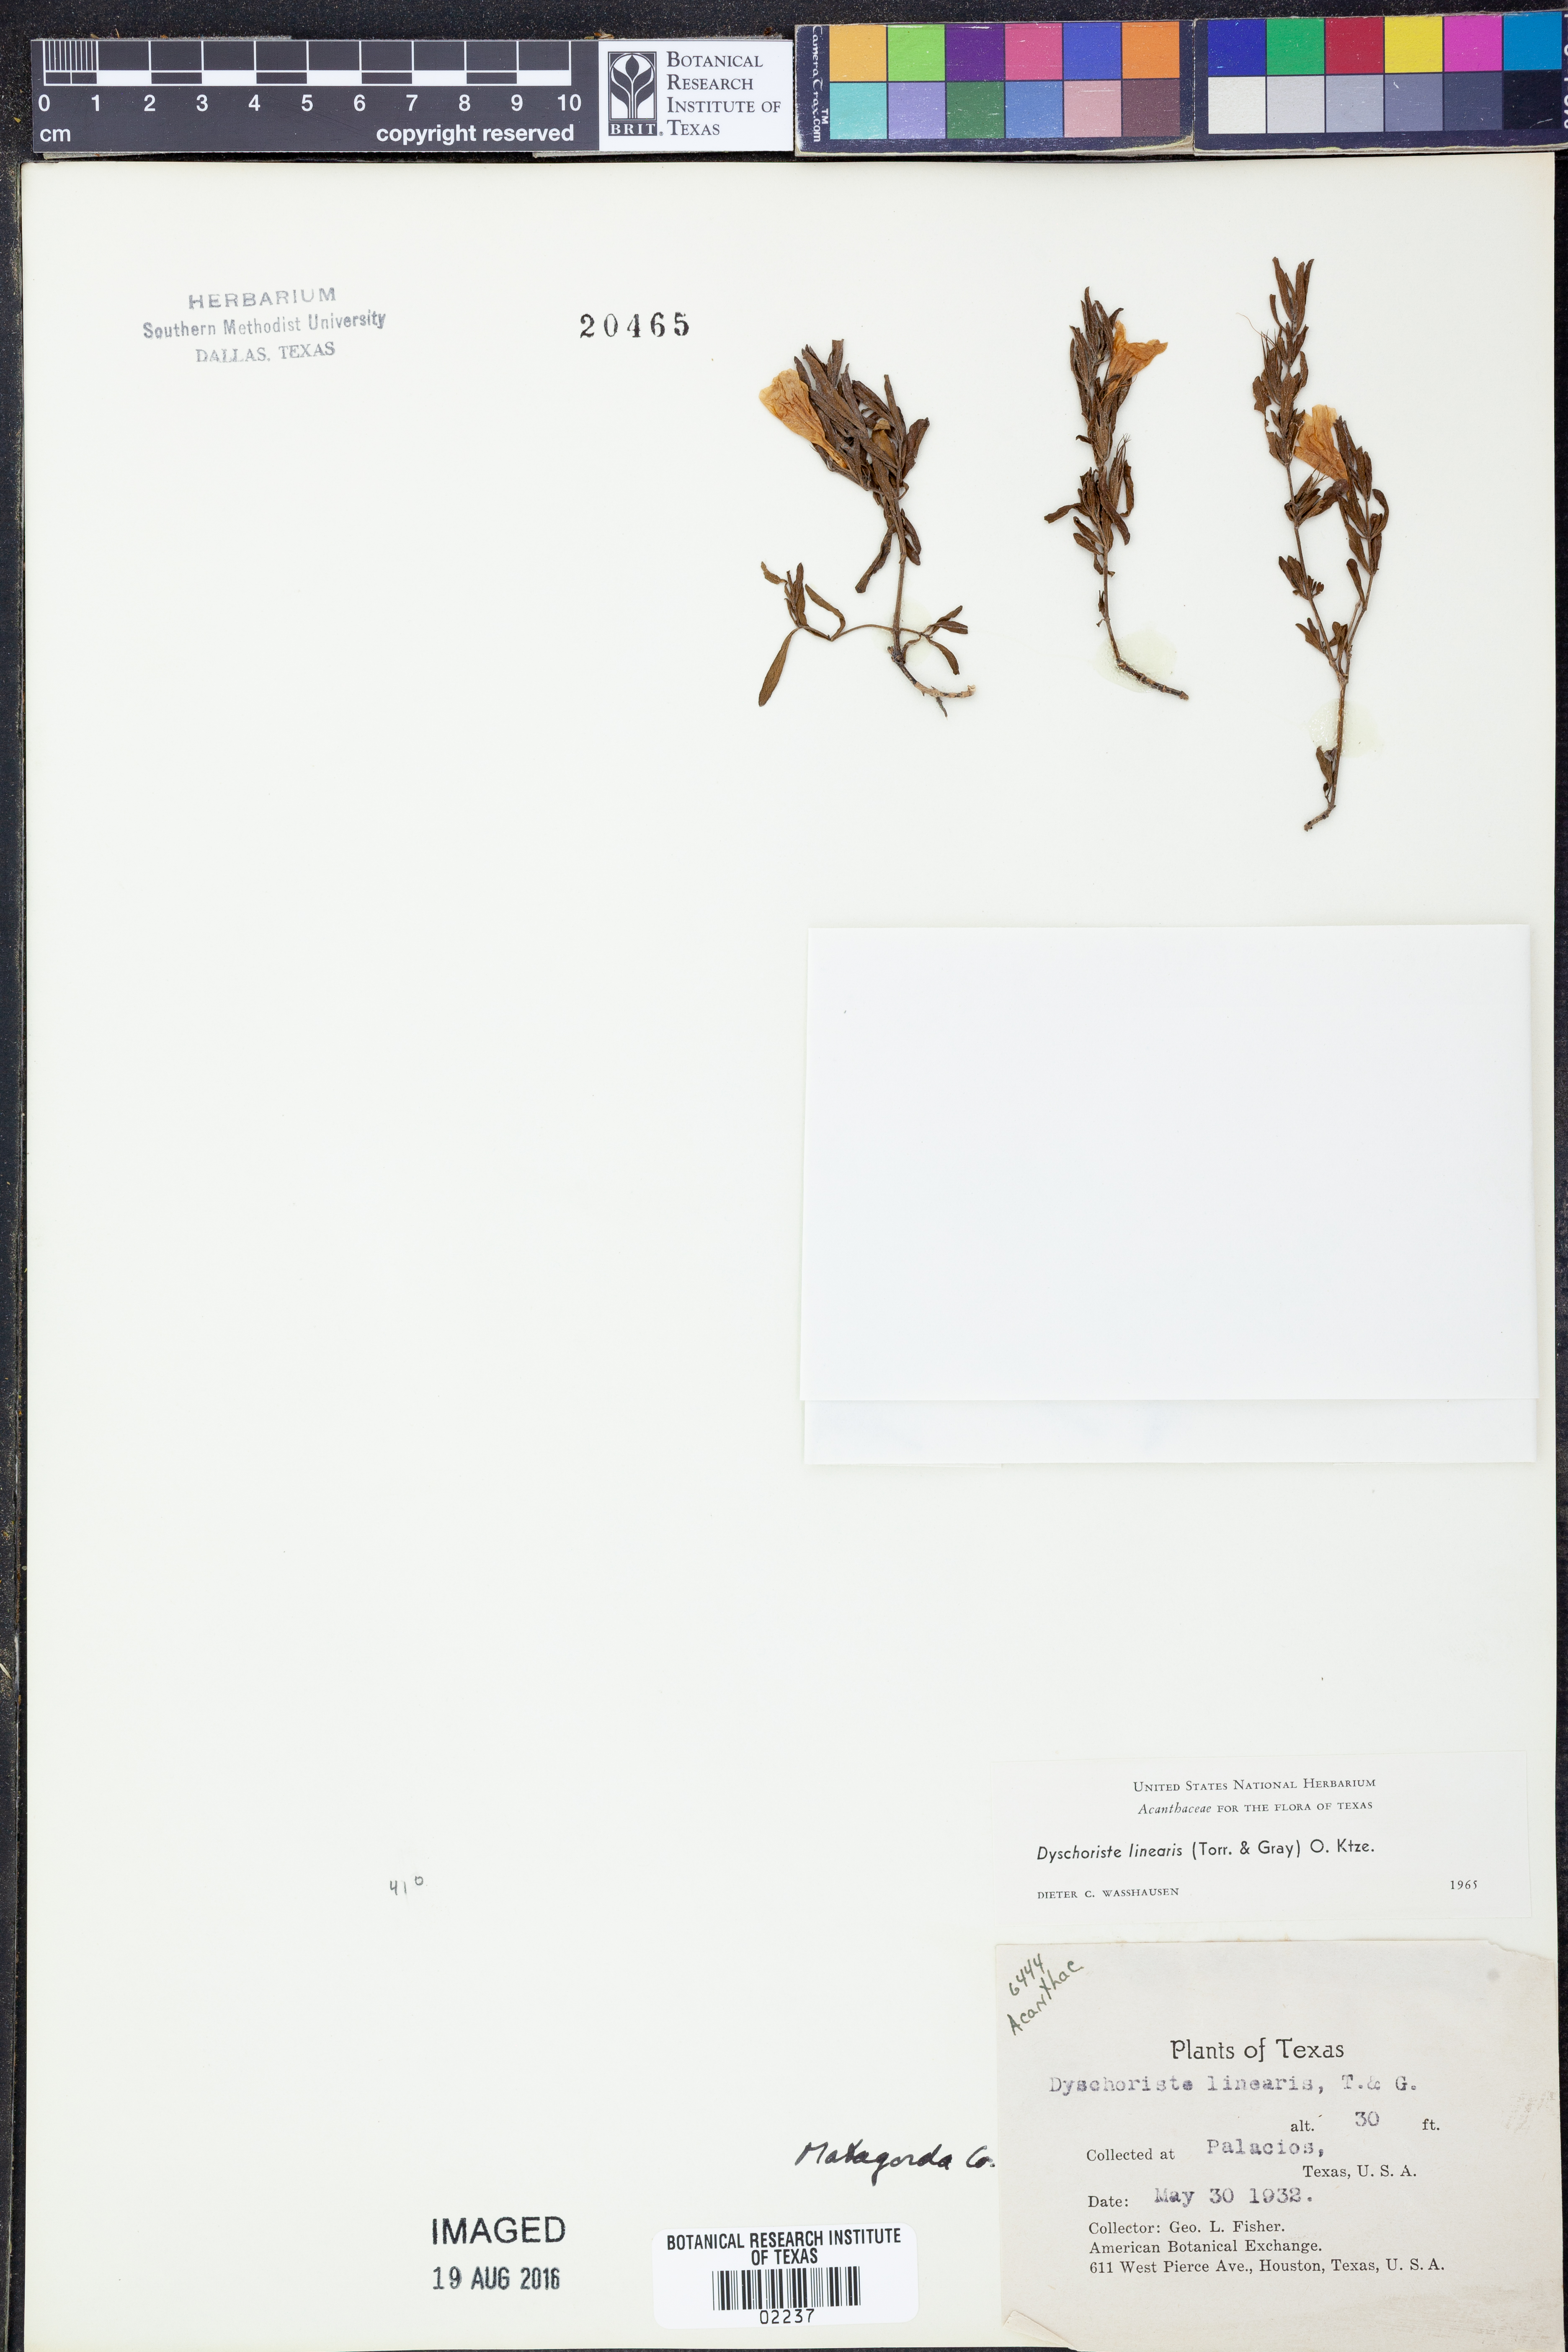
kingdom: Plantae
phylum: Tracheophyta
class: Magnoliopsida
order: Lamiales
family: Acanthaceae
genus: Dyschoriste
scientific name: Dyschoriste linearis
